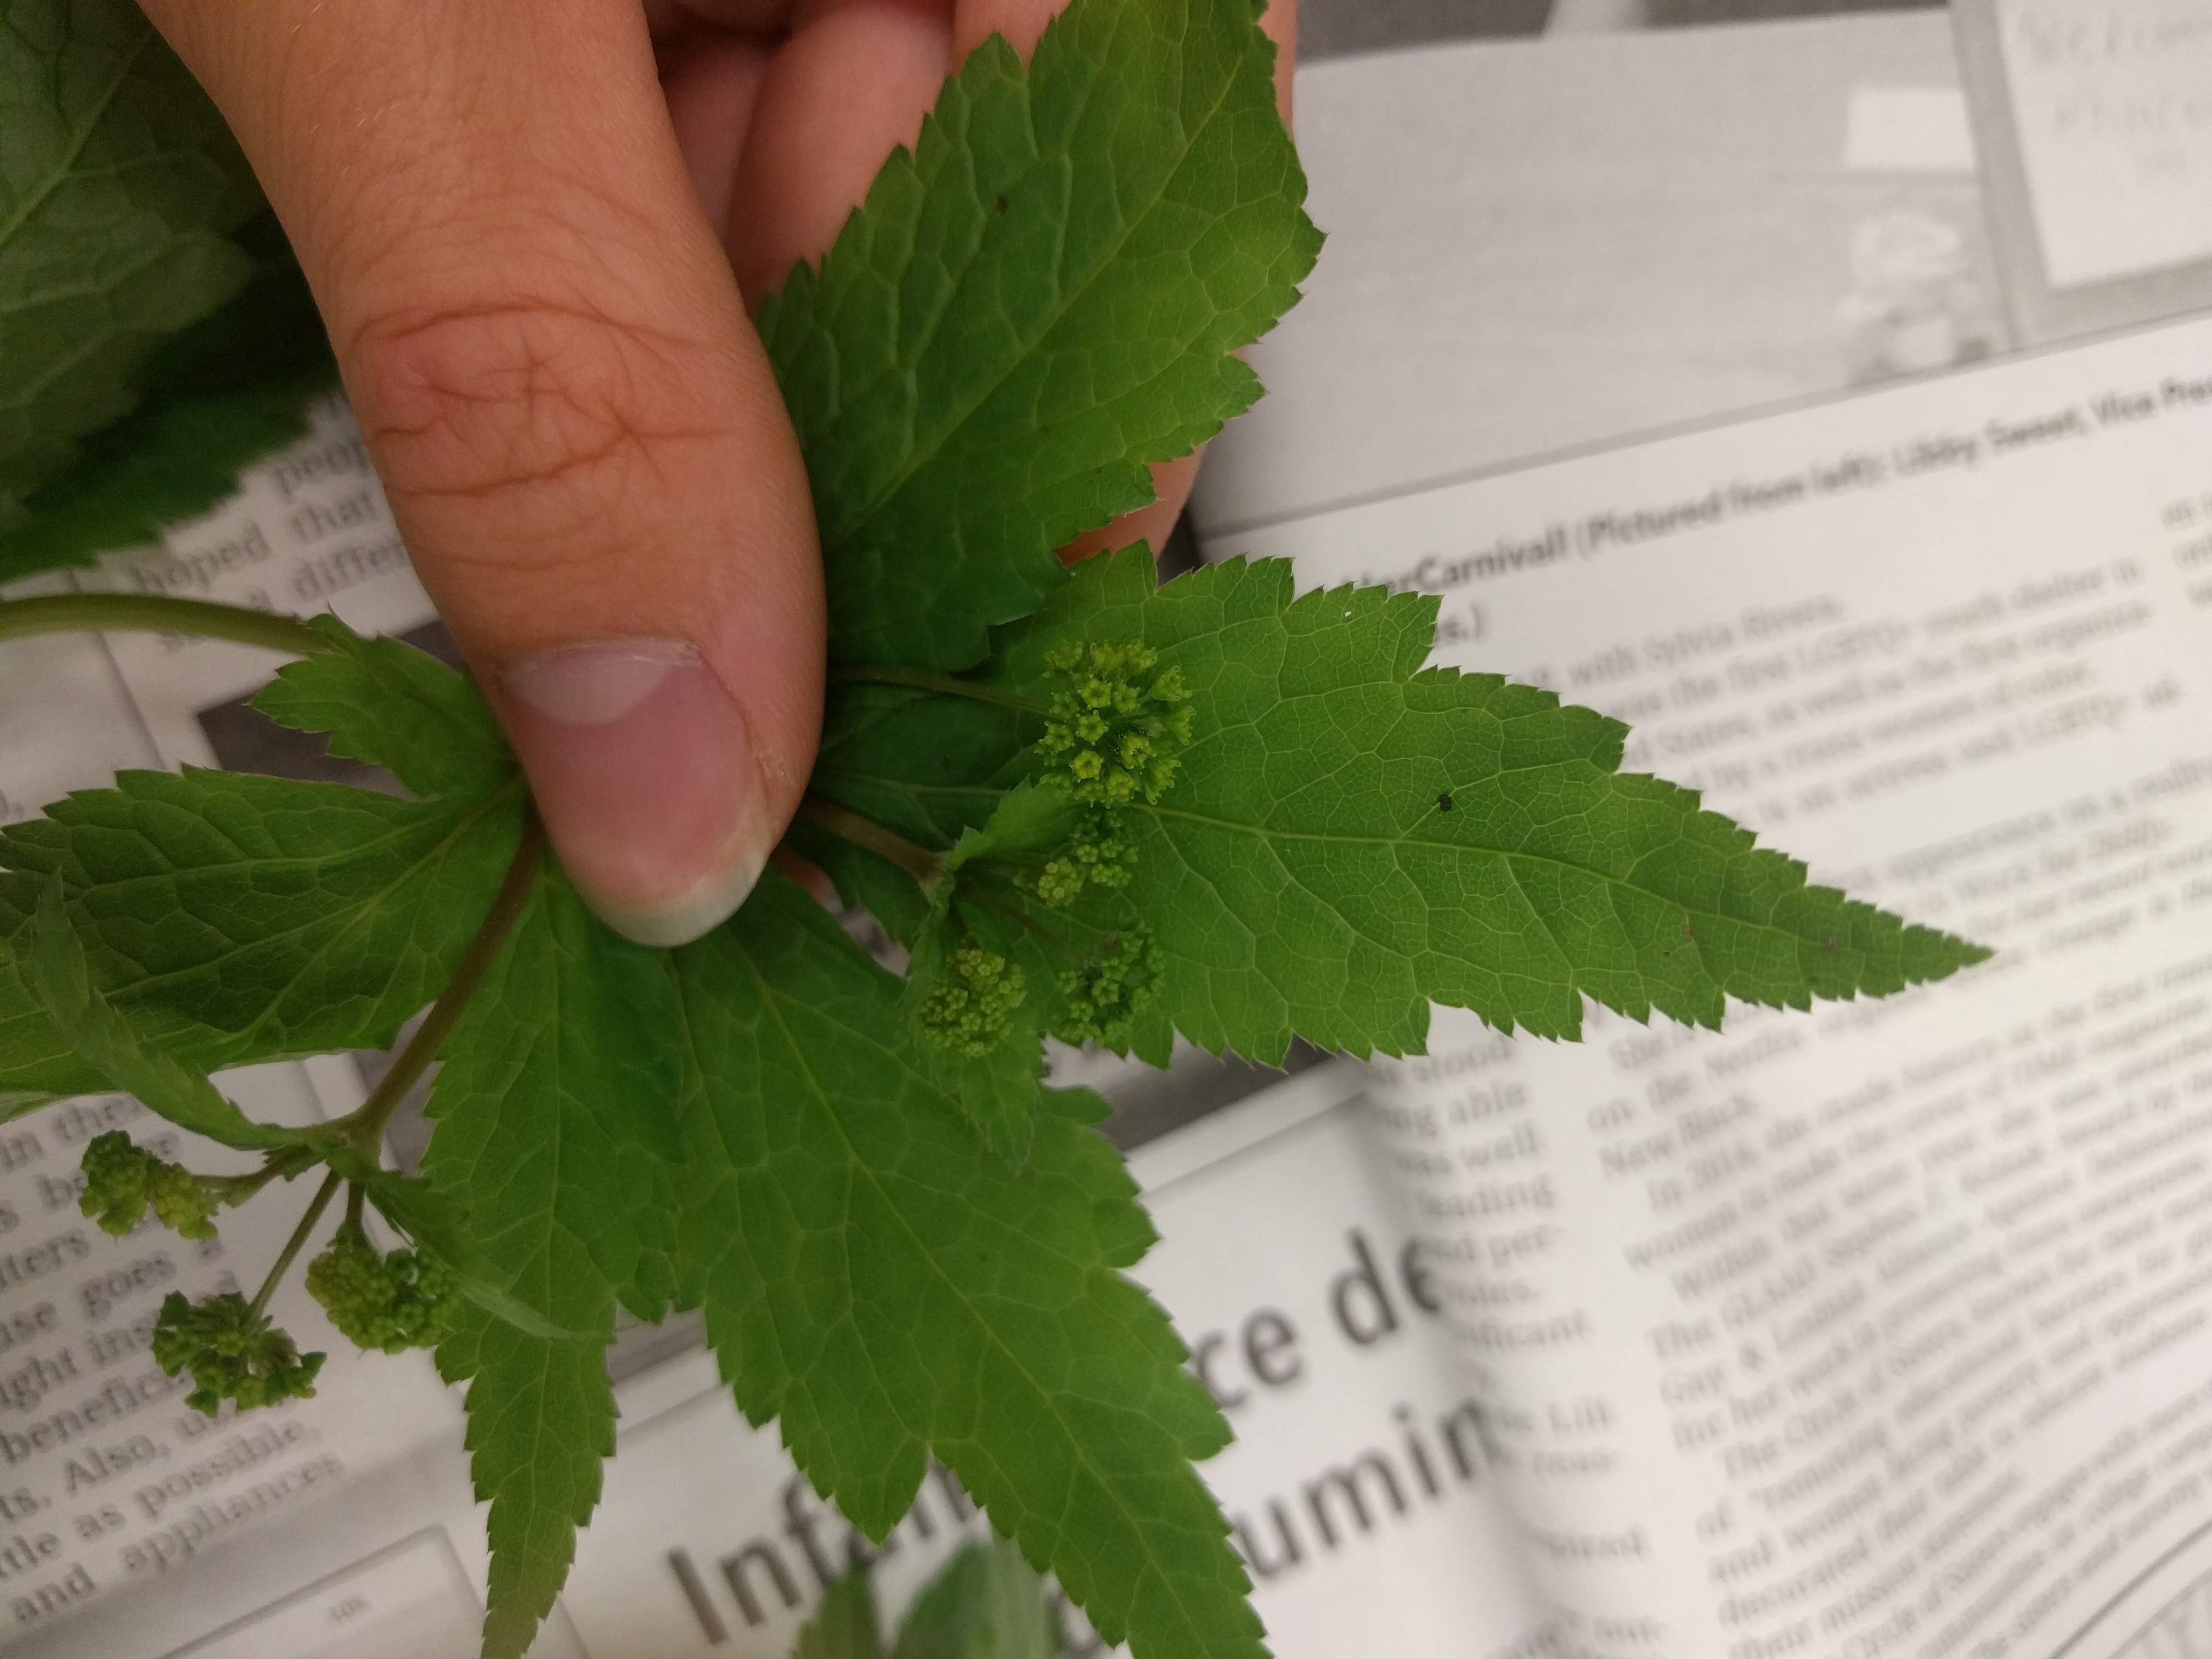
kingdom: Plantae
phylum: Tracheophyta
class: Magnoliopsida
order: Apiales
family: Apiaceae
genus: Sanicula
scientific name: Sanicula odorata
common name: Cluster sanicle
